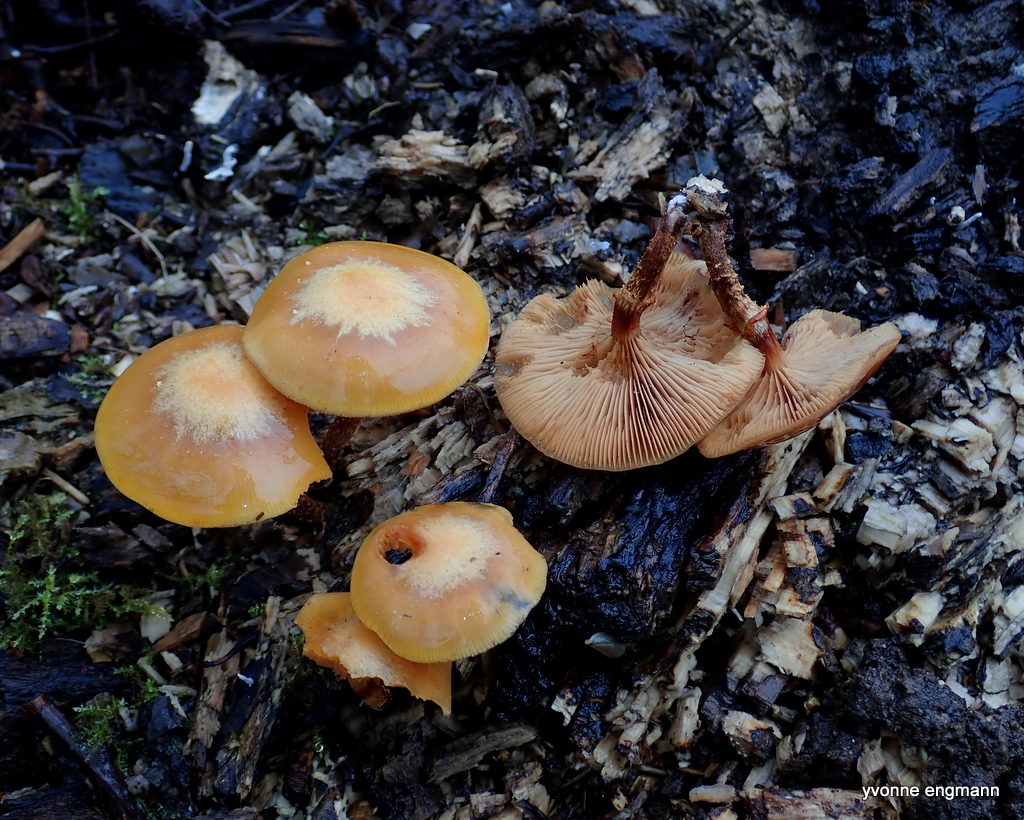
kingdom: Fungi
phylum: Basidiomycota
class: Agaricomycetes
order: Agaricales
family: Strophariaceae
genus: Kuehneromyces
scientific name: Kuehneromyces mutabilis
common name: foranderlig skælhat
